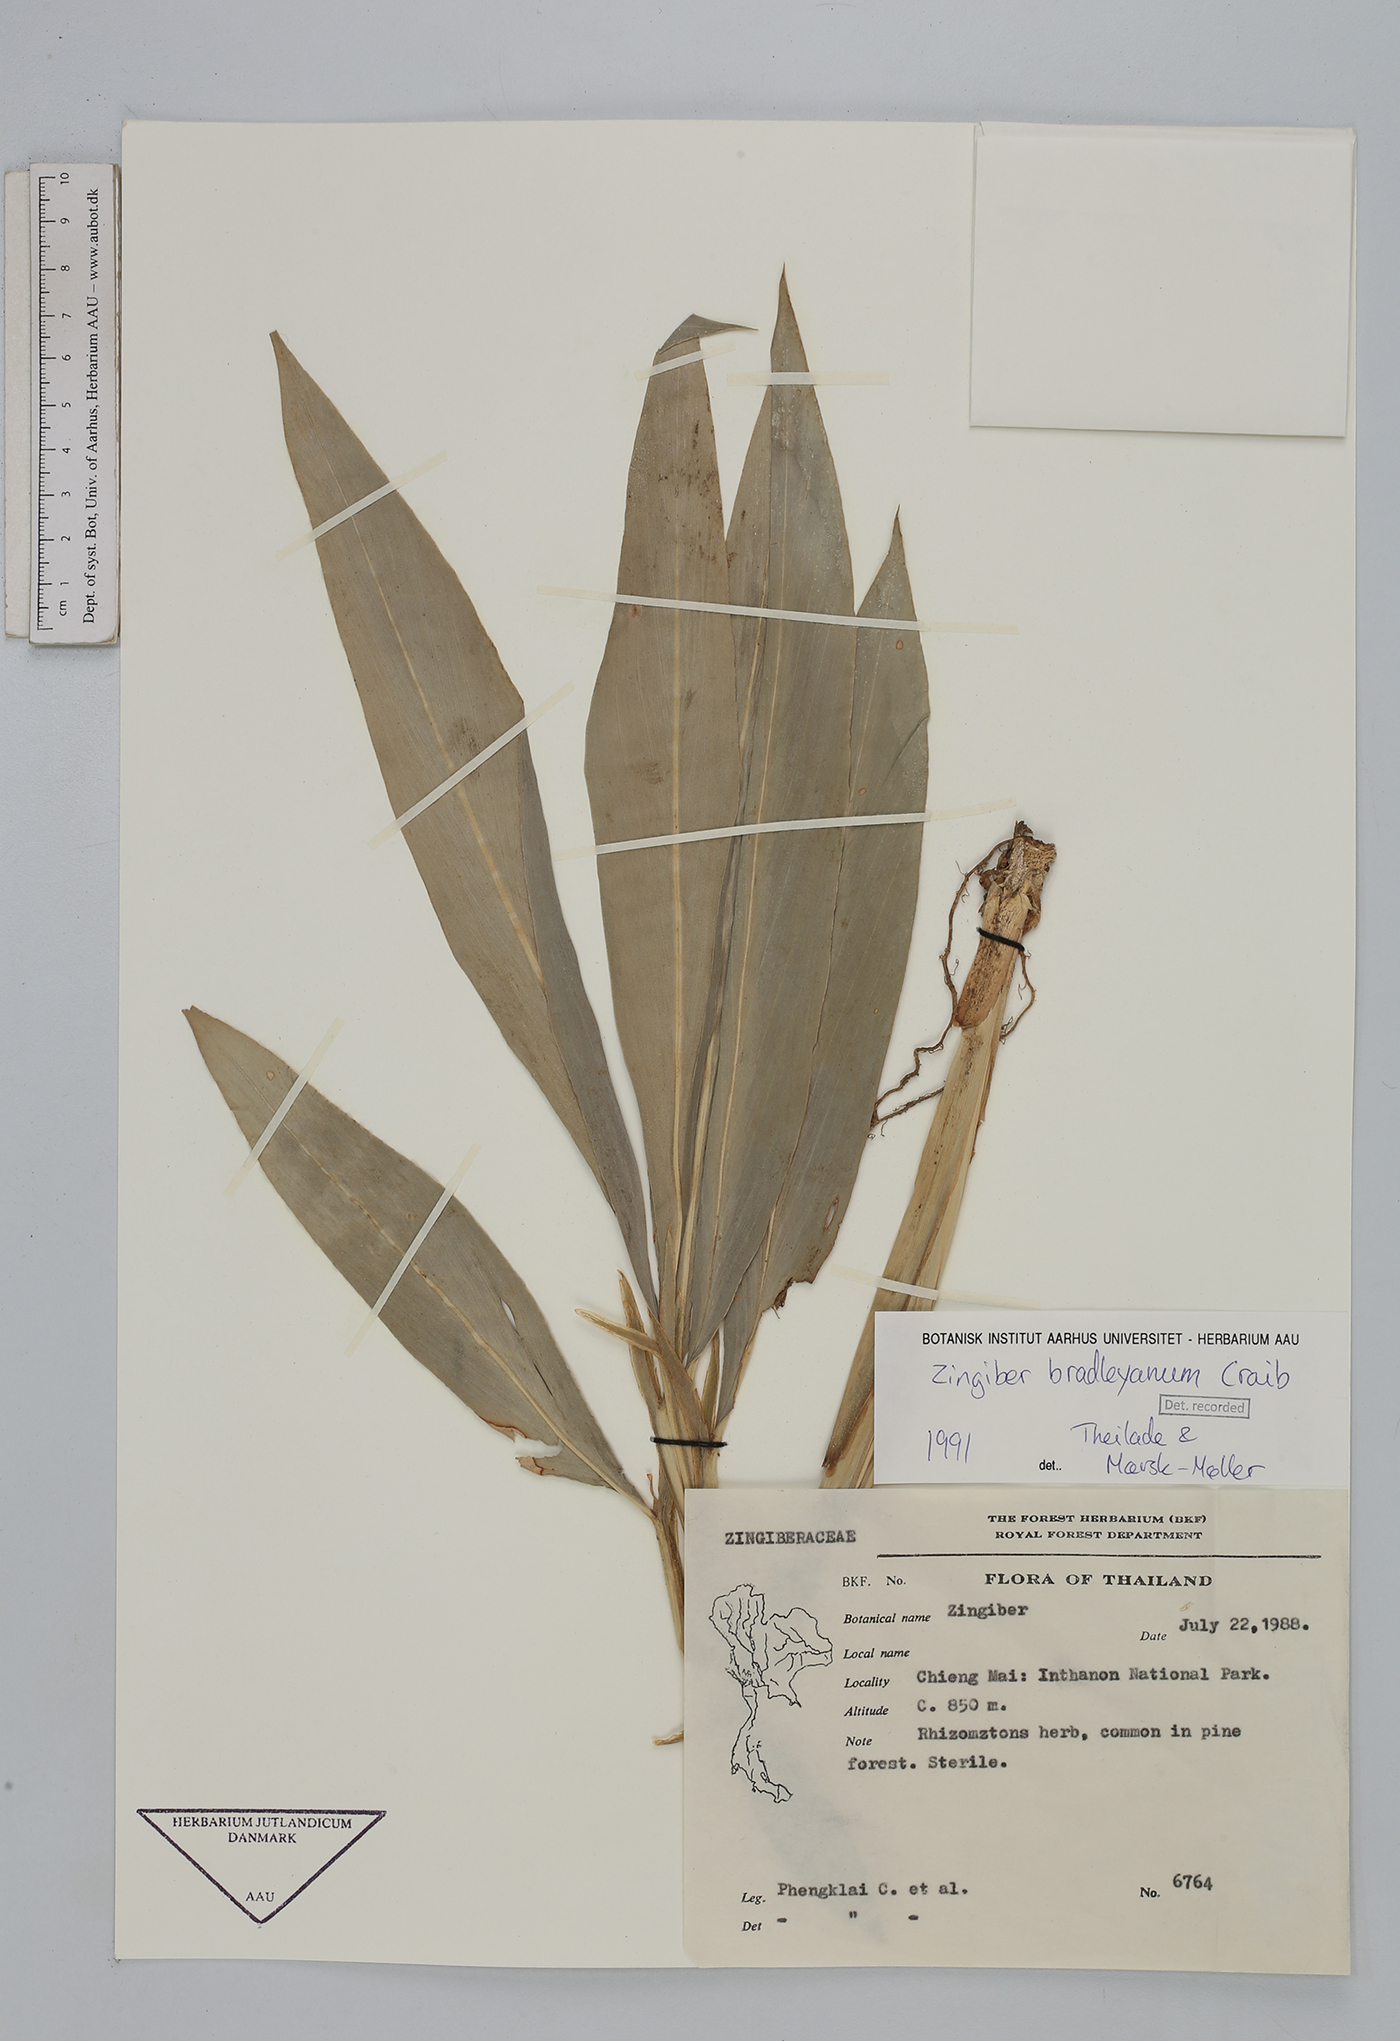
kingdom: Plantae
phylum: Tracheophyta
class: Liliopsida
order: Zingiberales
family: Zingiberaceae
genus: Zingiber
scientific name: Zingiber bradleyanum
